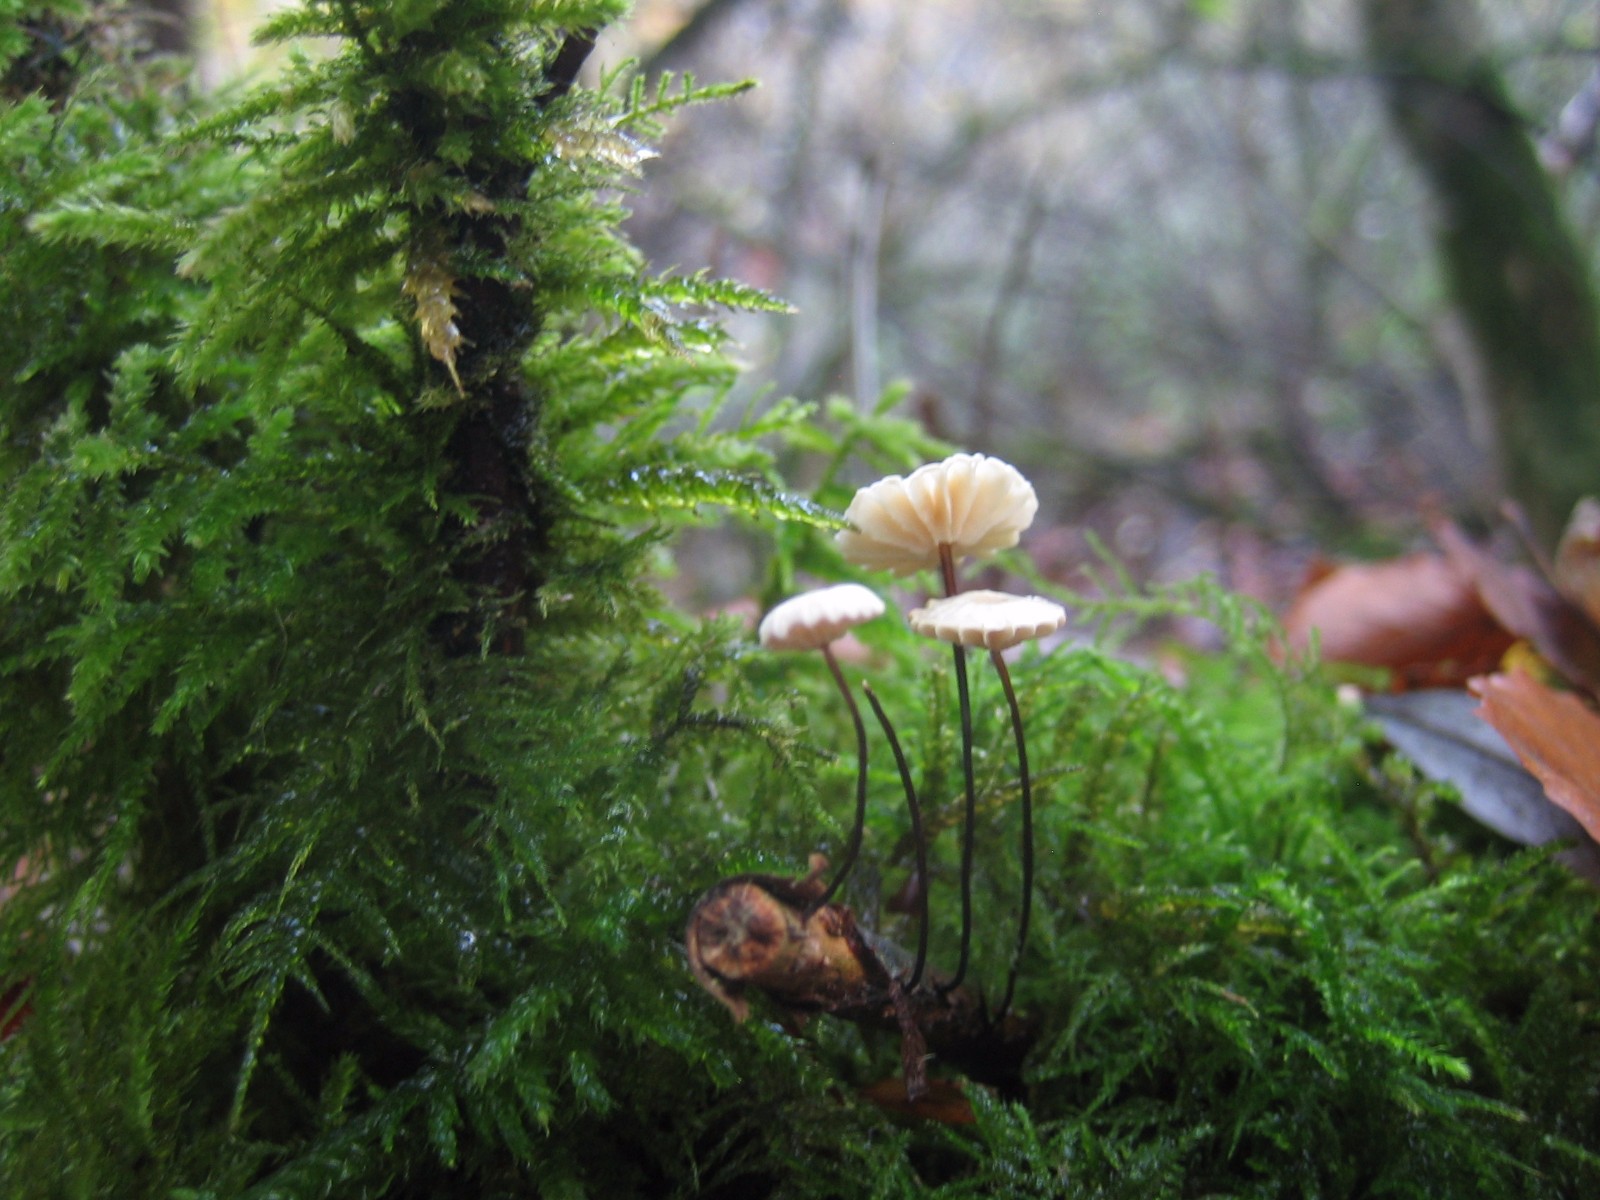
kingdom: Fungi
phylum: Basidiomycota
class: Agaricomycetes
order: Agaricales
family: Marasmiaceae
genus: Marasmius
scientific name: Marasmius rotula
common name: hjul-bruskhat
